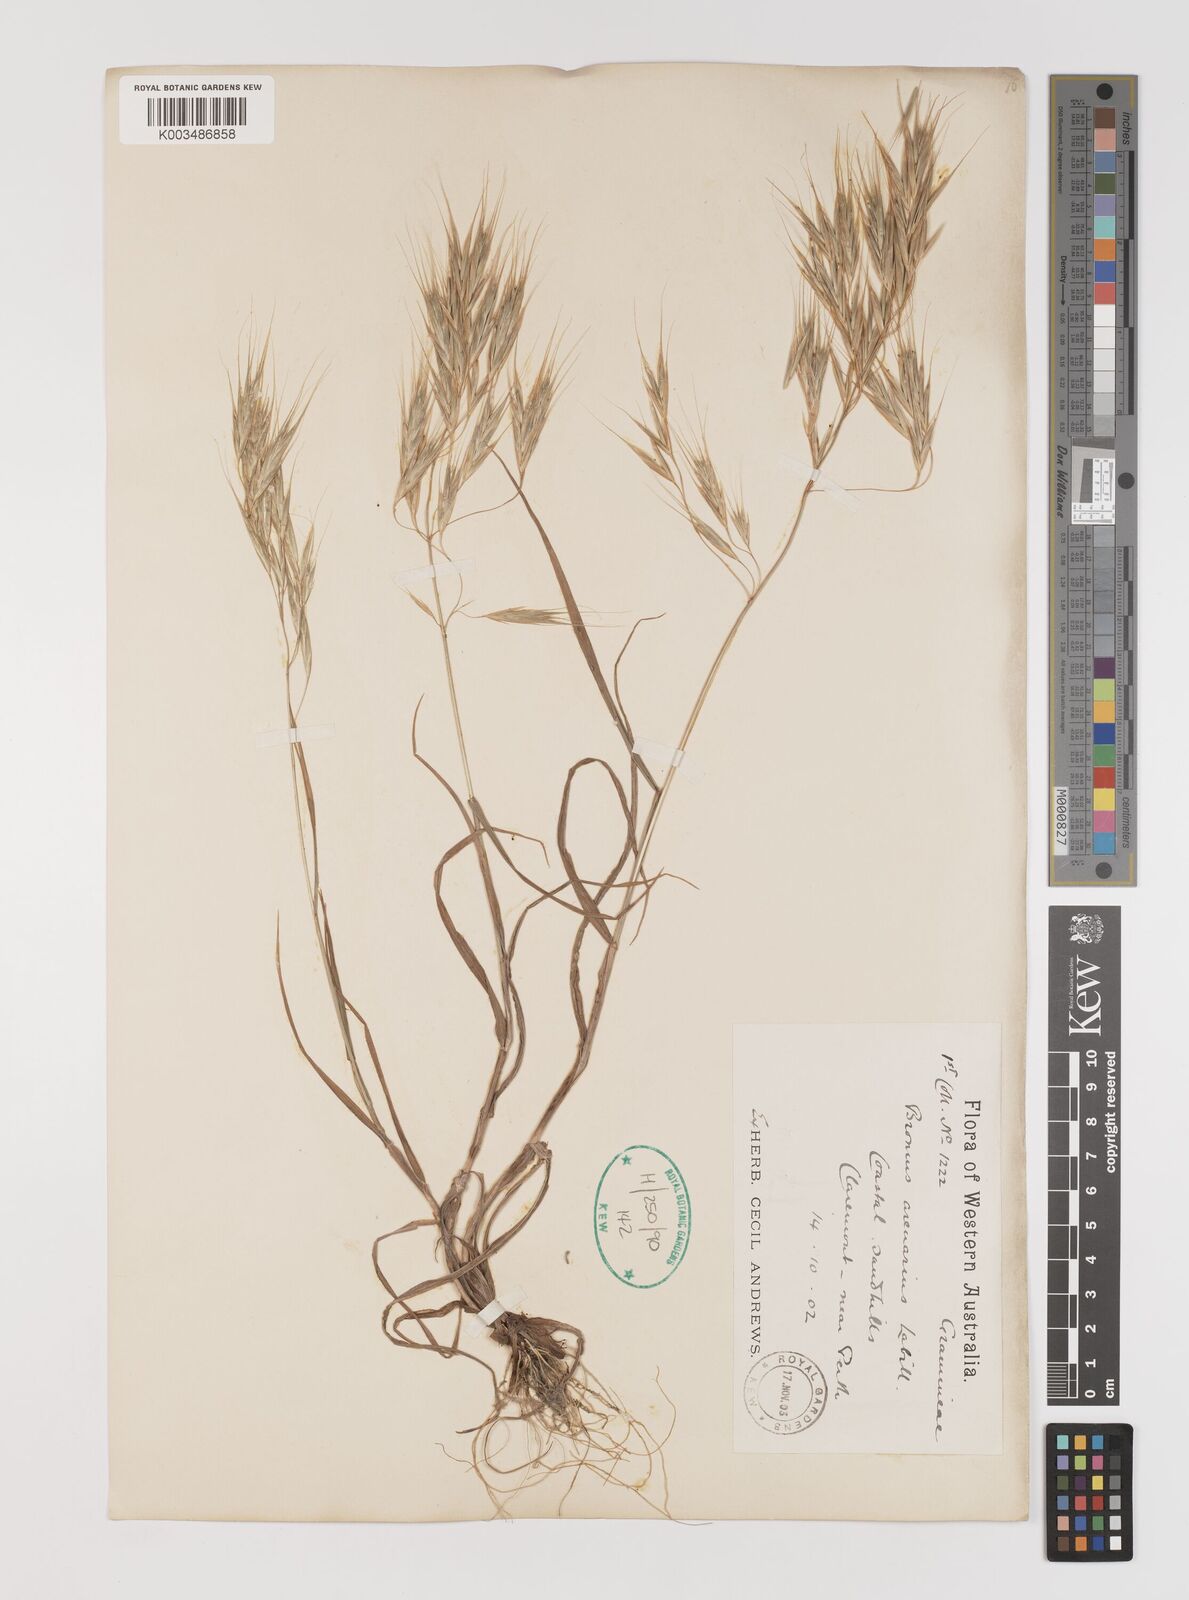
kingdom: Plantae
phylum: Tracheophyta
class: Liliopsida
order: Poales
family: Poaceae
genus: Bromus
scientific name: Bromus arenarius
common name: Australian brome
